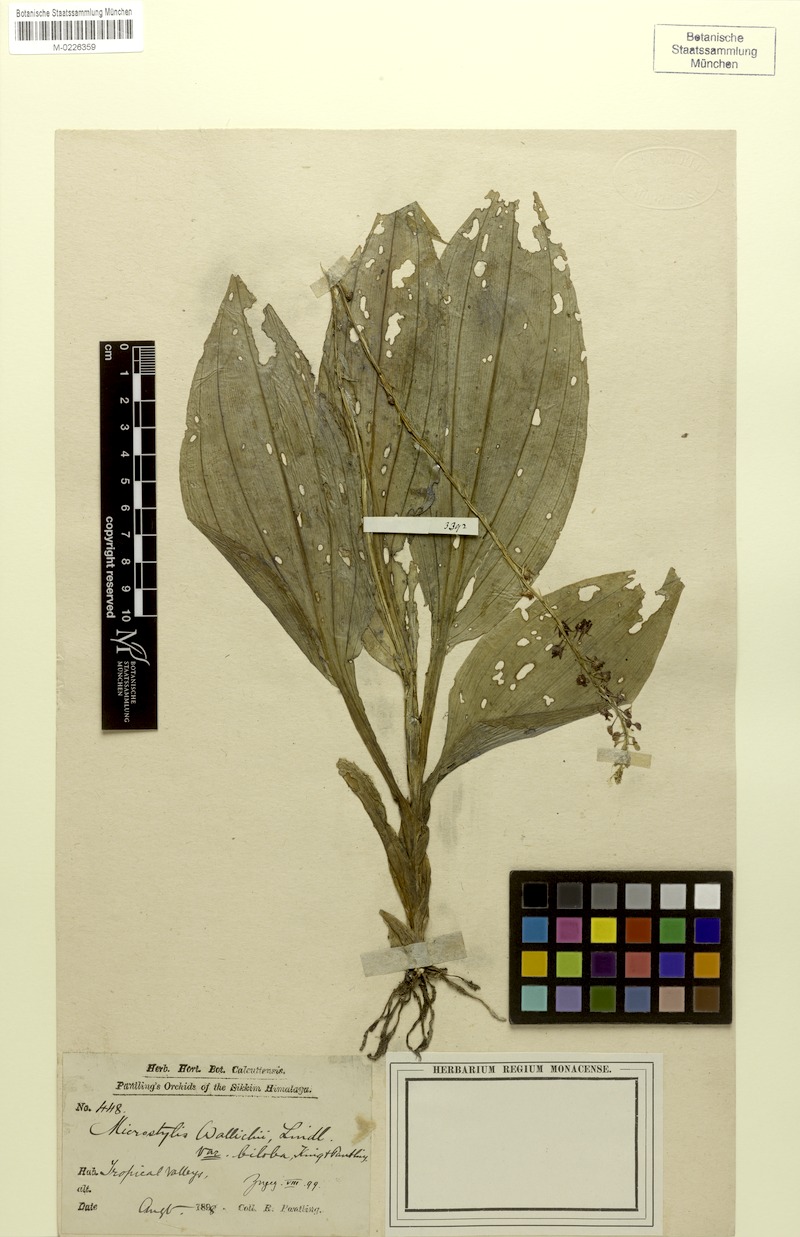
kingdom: Plantae
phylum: Tracheophyta
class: Liliopsida
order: Asparagales
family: Orchidaceae
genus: Crepidium
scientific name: Crepidium purpureum
